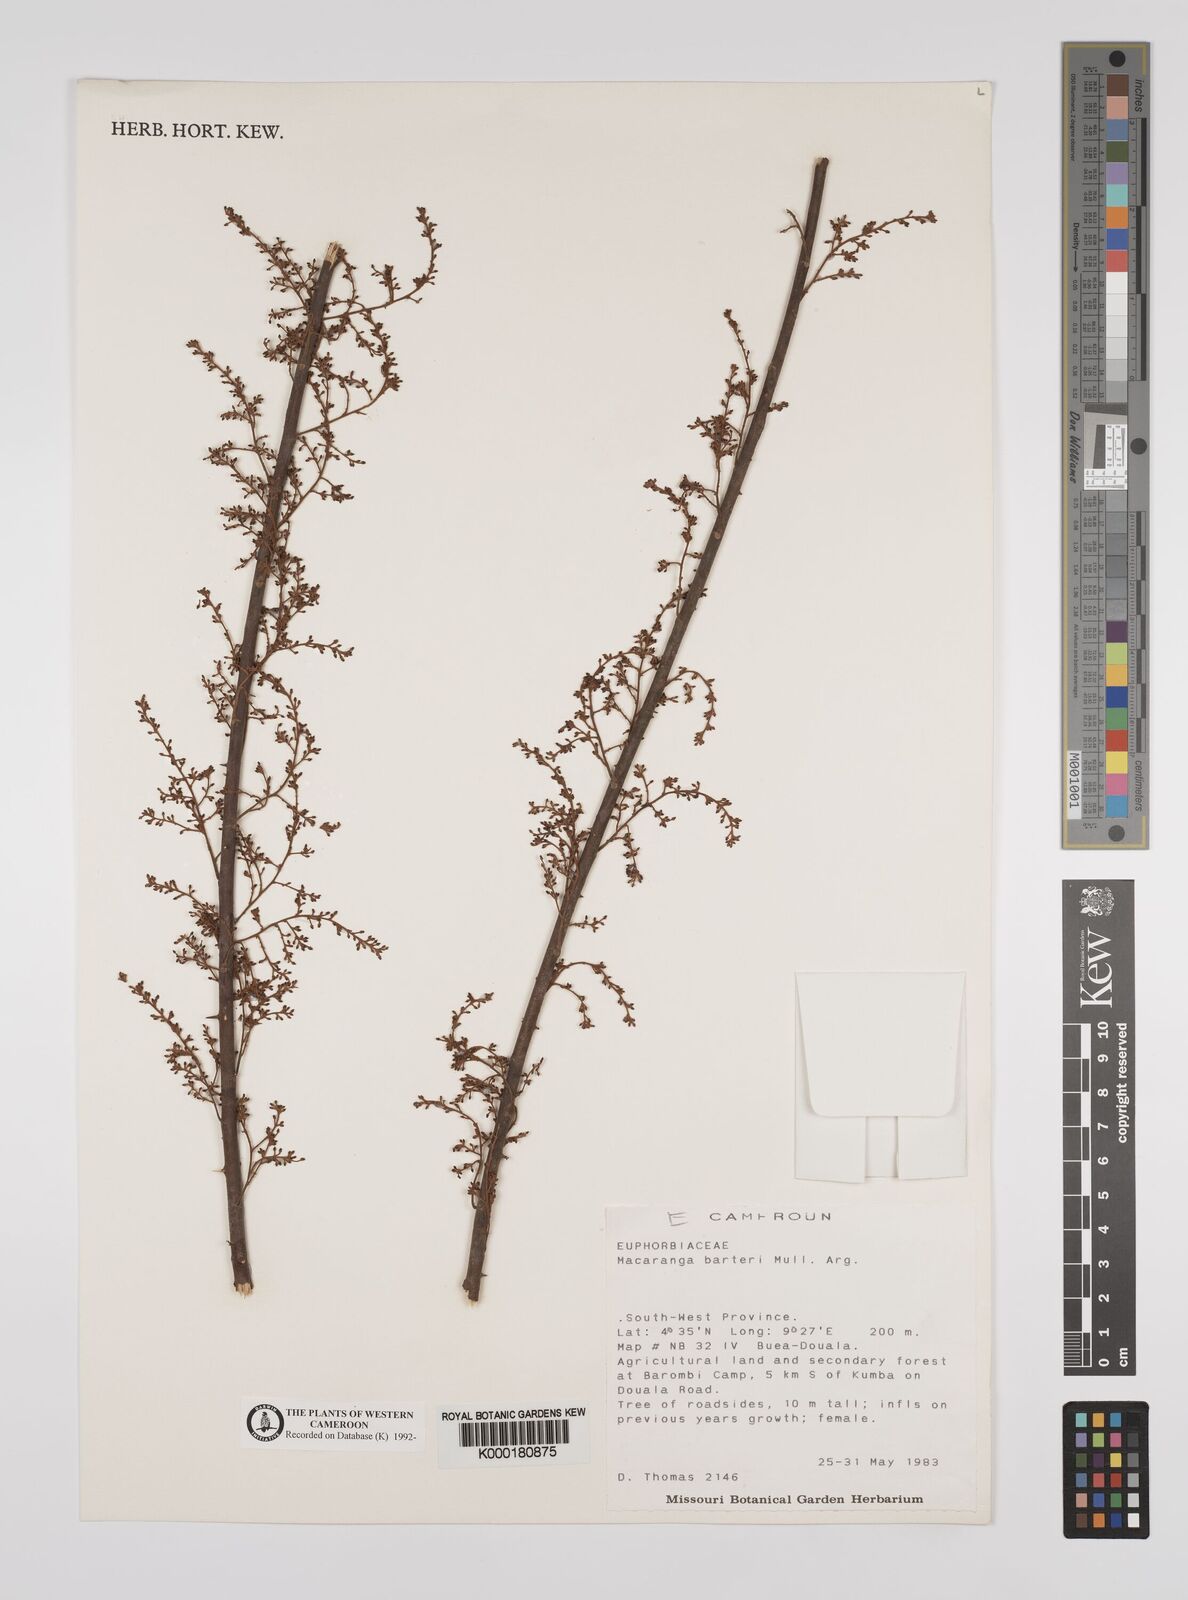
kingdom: Plantae
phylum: Tracheophyta
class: Magnoliopsida
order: Malpighiales
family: Euphorbiaceae
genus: Macaranga
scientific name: Macaranga
